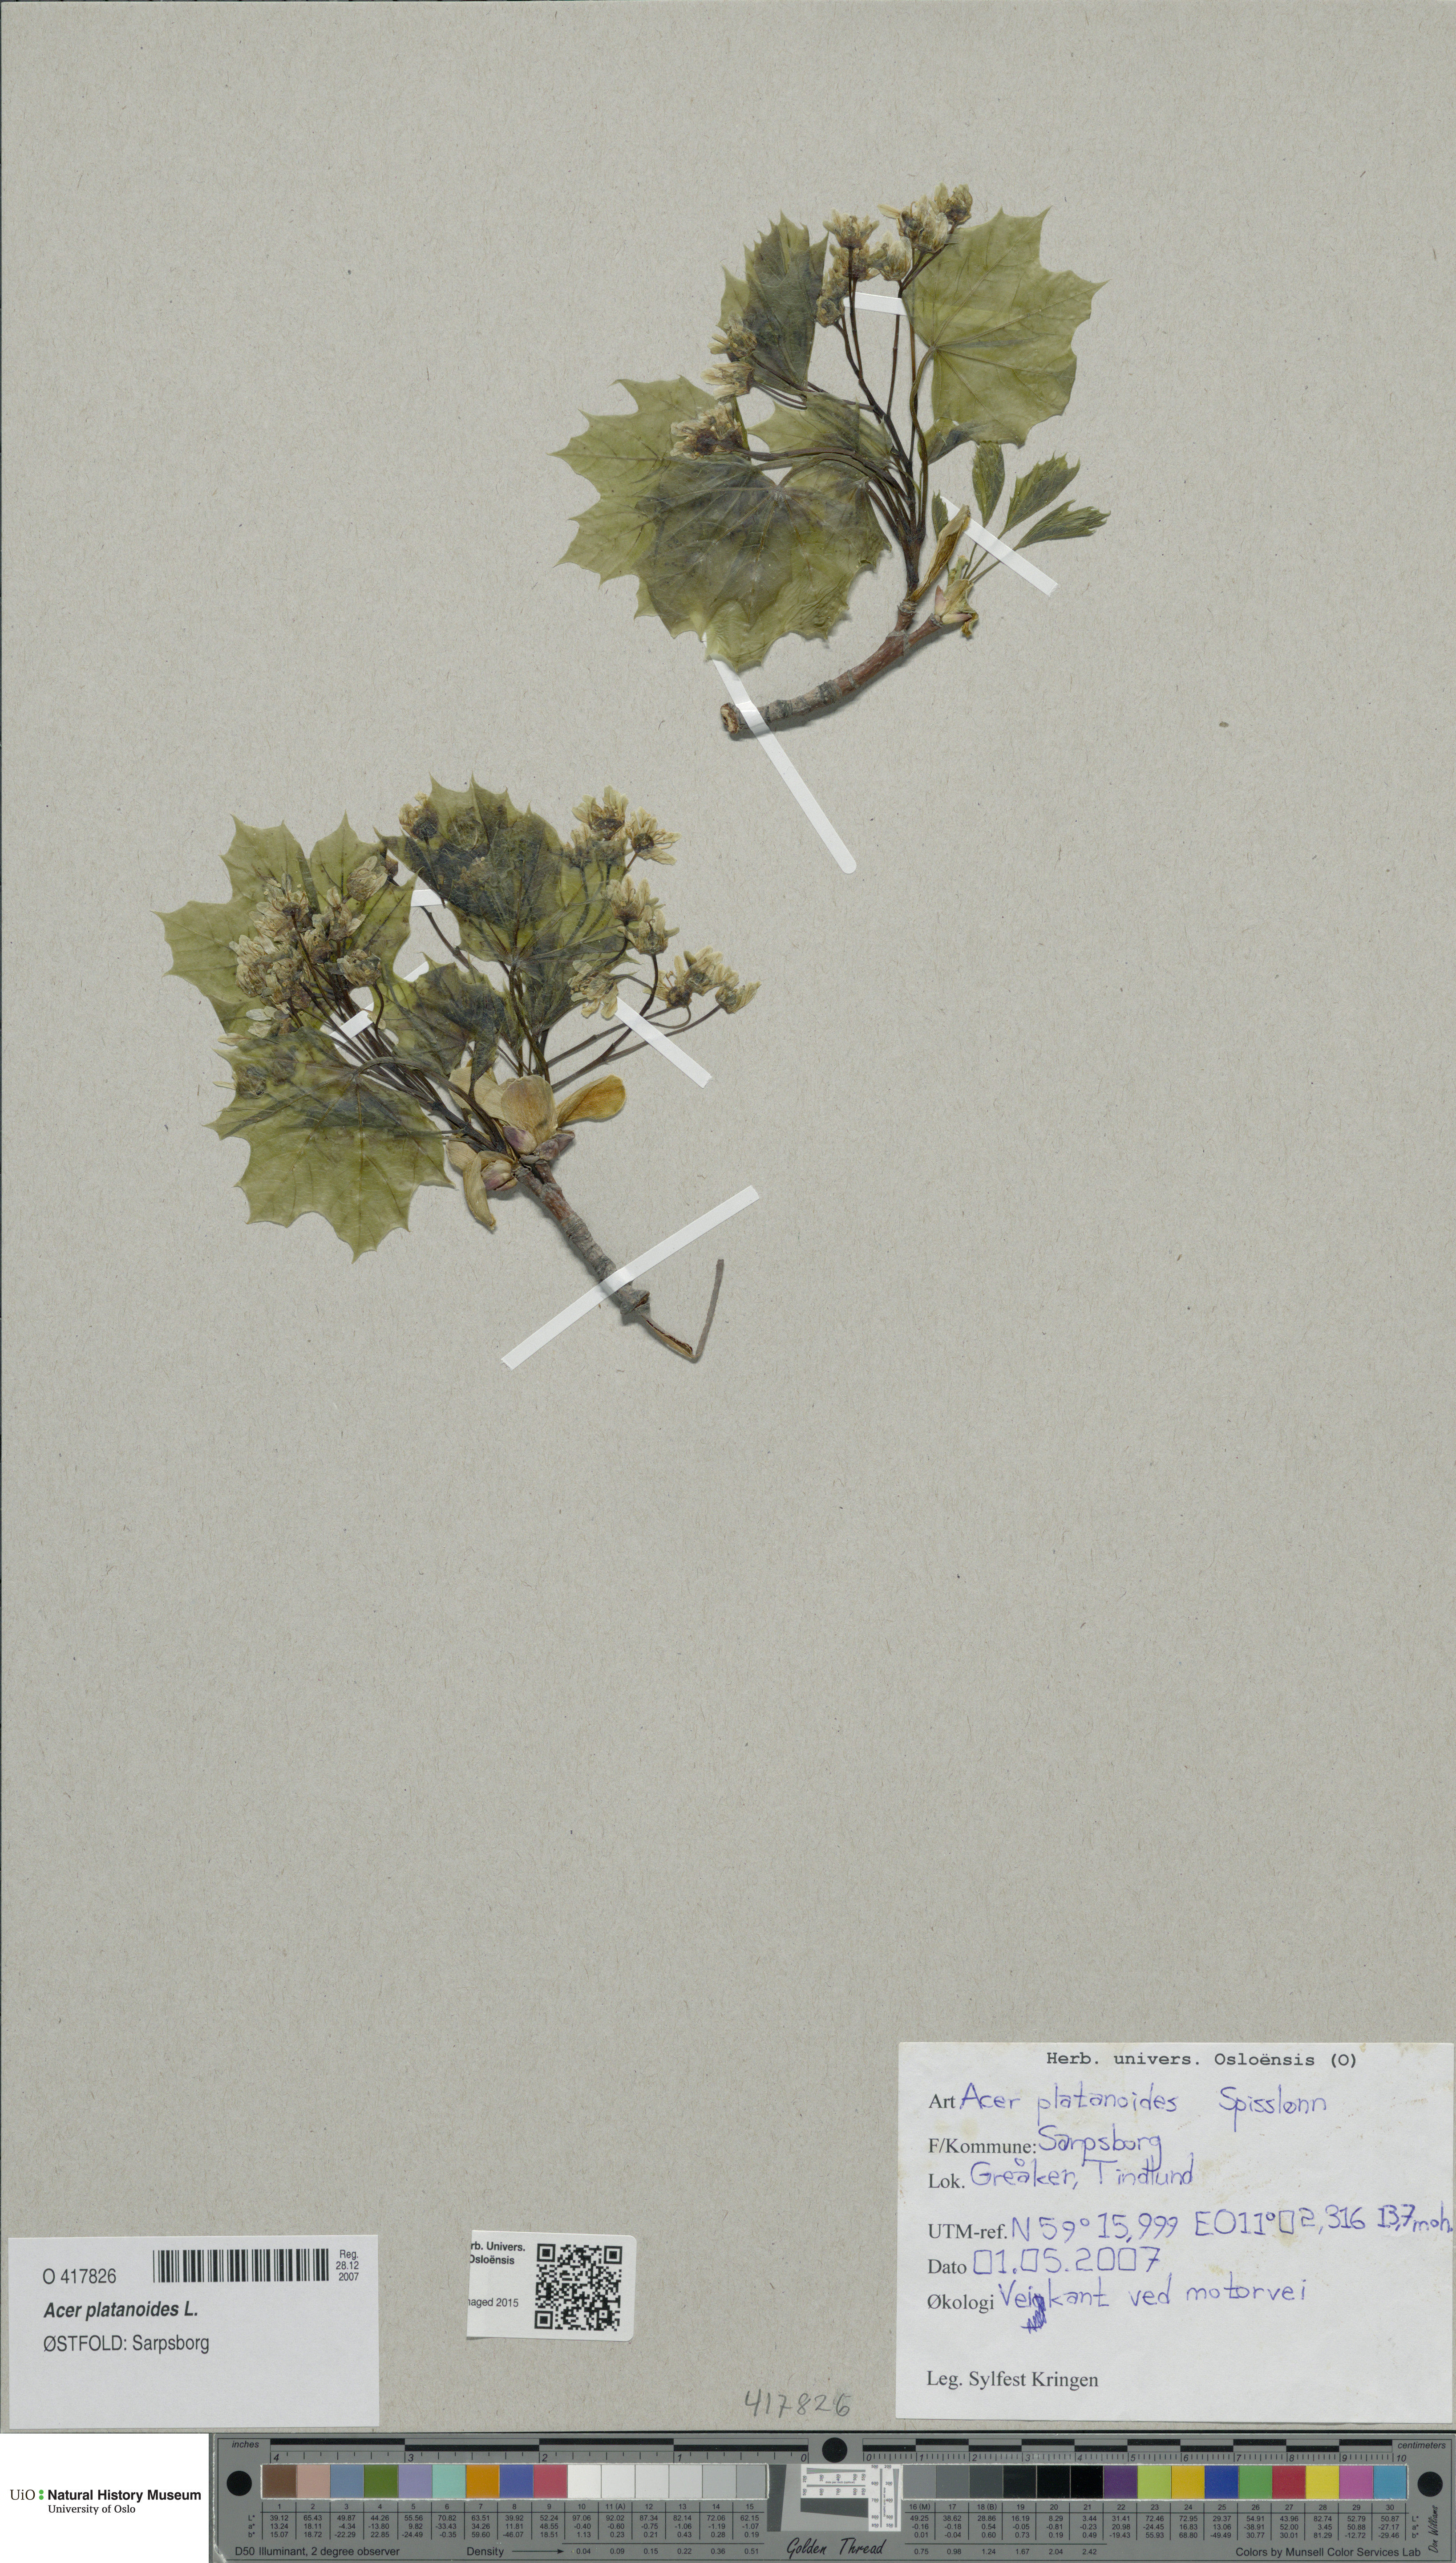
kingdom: Plantae
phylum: Tracheophyta
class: Magnoliopsida
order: Sapindales
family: Sapindaceae
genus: Acer
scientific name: Acer platanoides
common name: Norway maple
